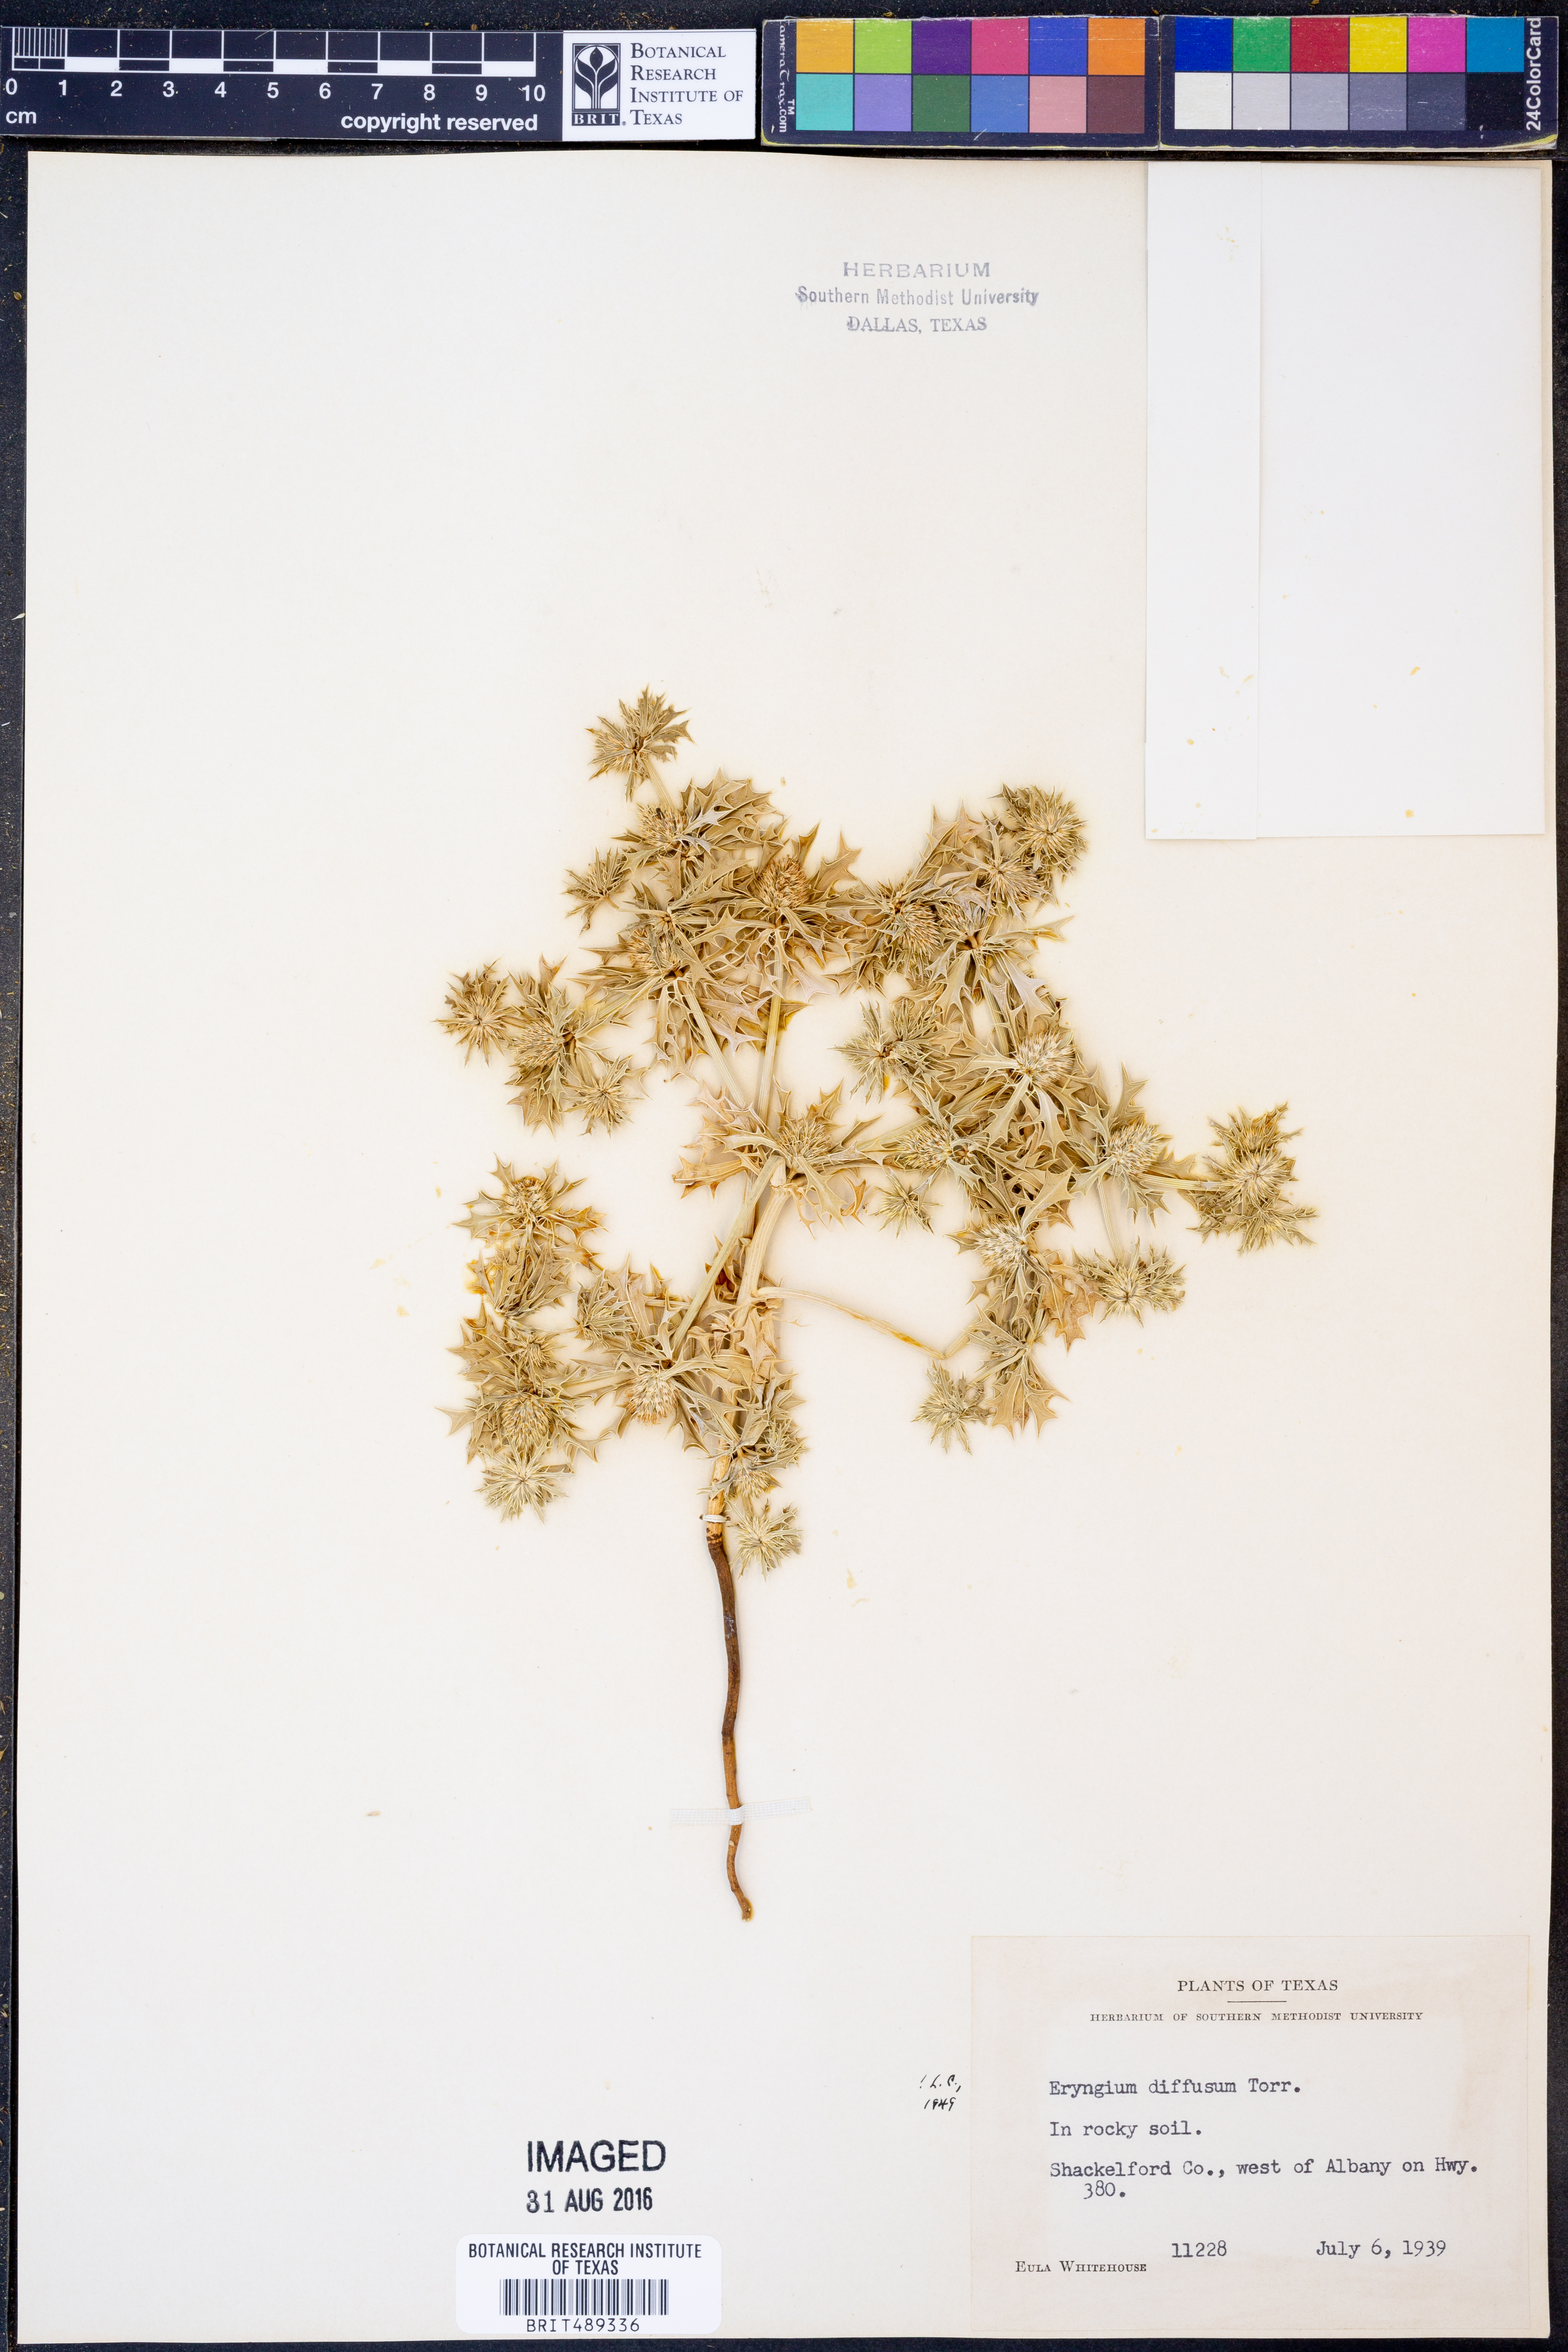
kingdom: Plantae
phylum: Tracheophyta
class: Magnoliopsida
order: Apiales
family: Apiaceae
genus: Eryngium
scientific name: Eryngium diffusum
